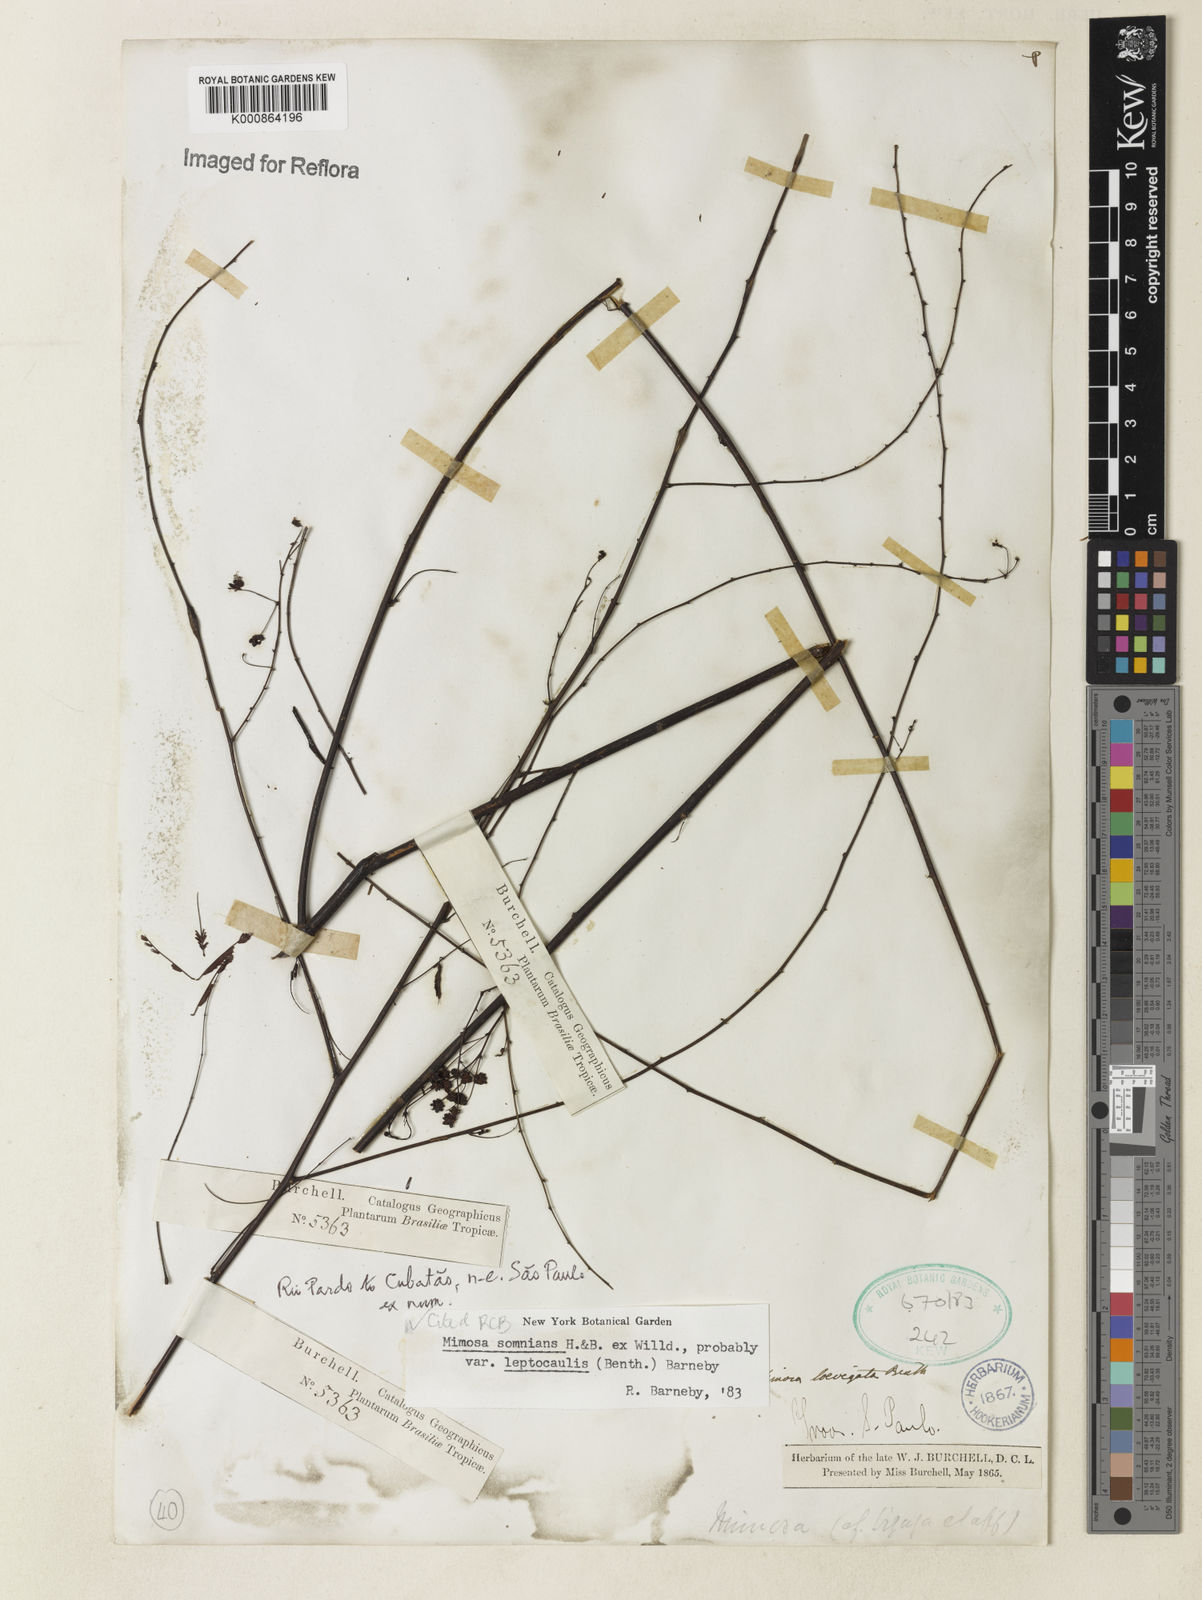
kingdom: Plantae
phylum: Tracheophyta
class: Magnoliopsida
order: Fabales
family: Fabaceae
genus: Mimosa
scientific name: Mimosa somnians
